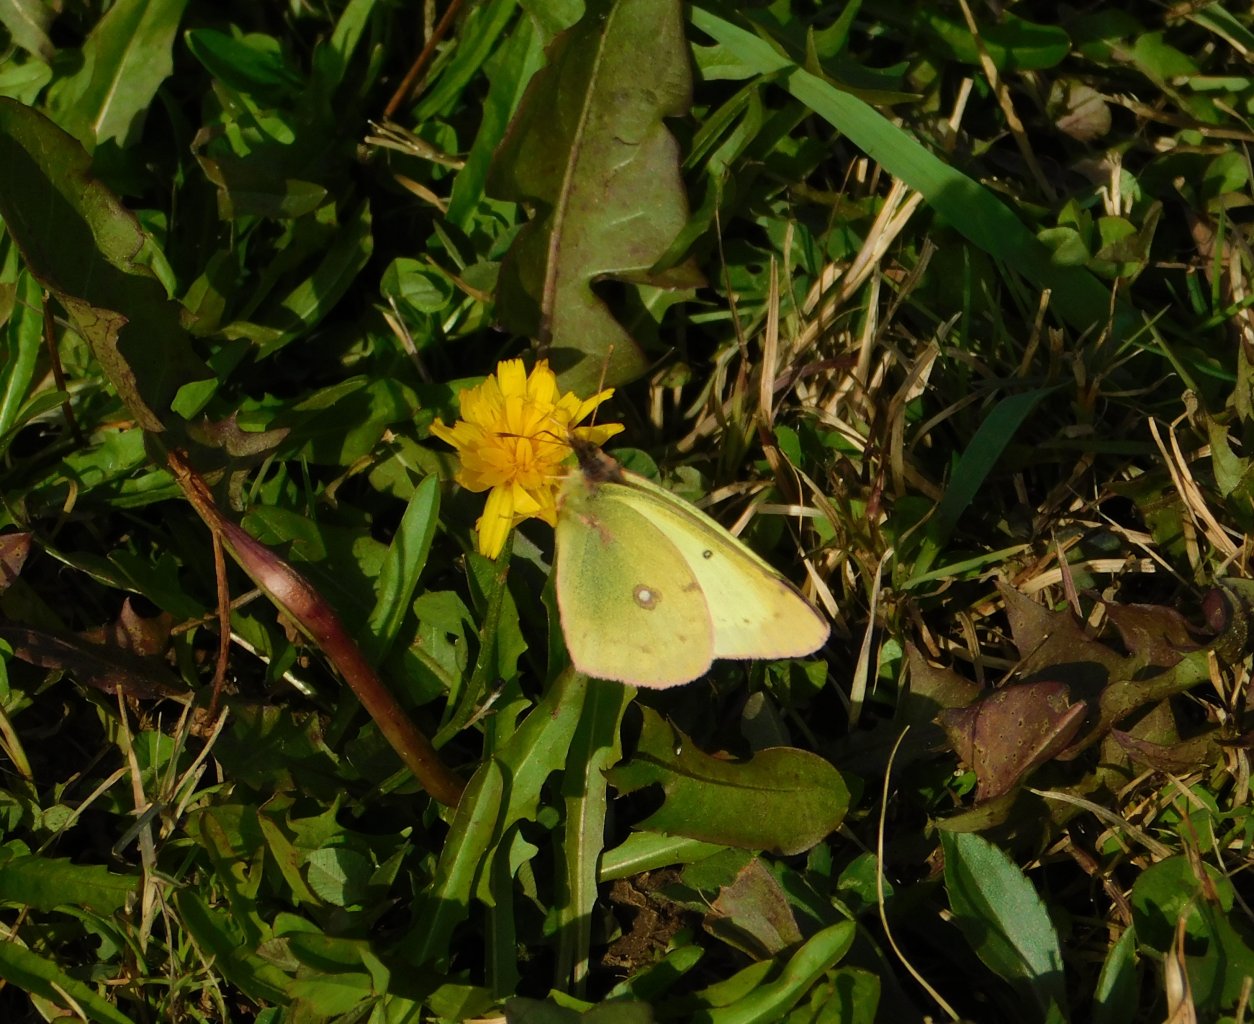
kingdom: Animalia
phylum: Arthropoda
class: Insecta
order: Lepidoptera
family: Pieridae
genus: Colias
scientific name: Colias philodice
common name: Clouded Sulphur
